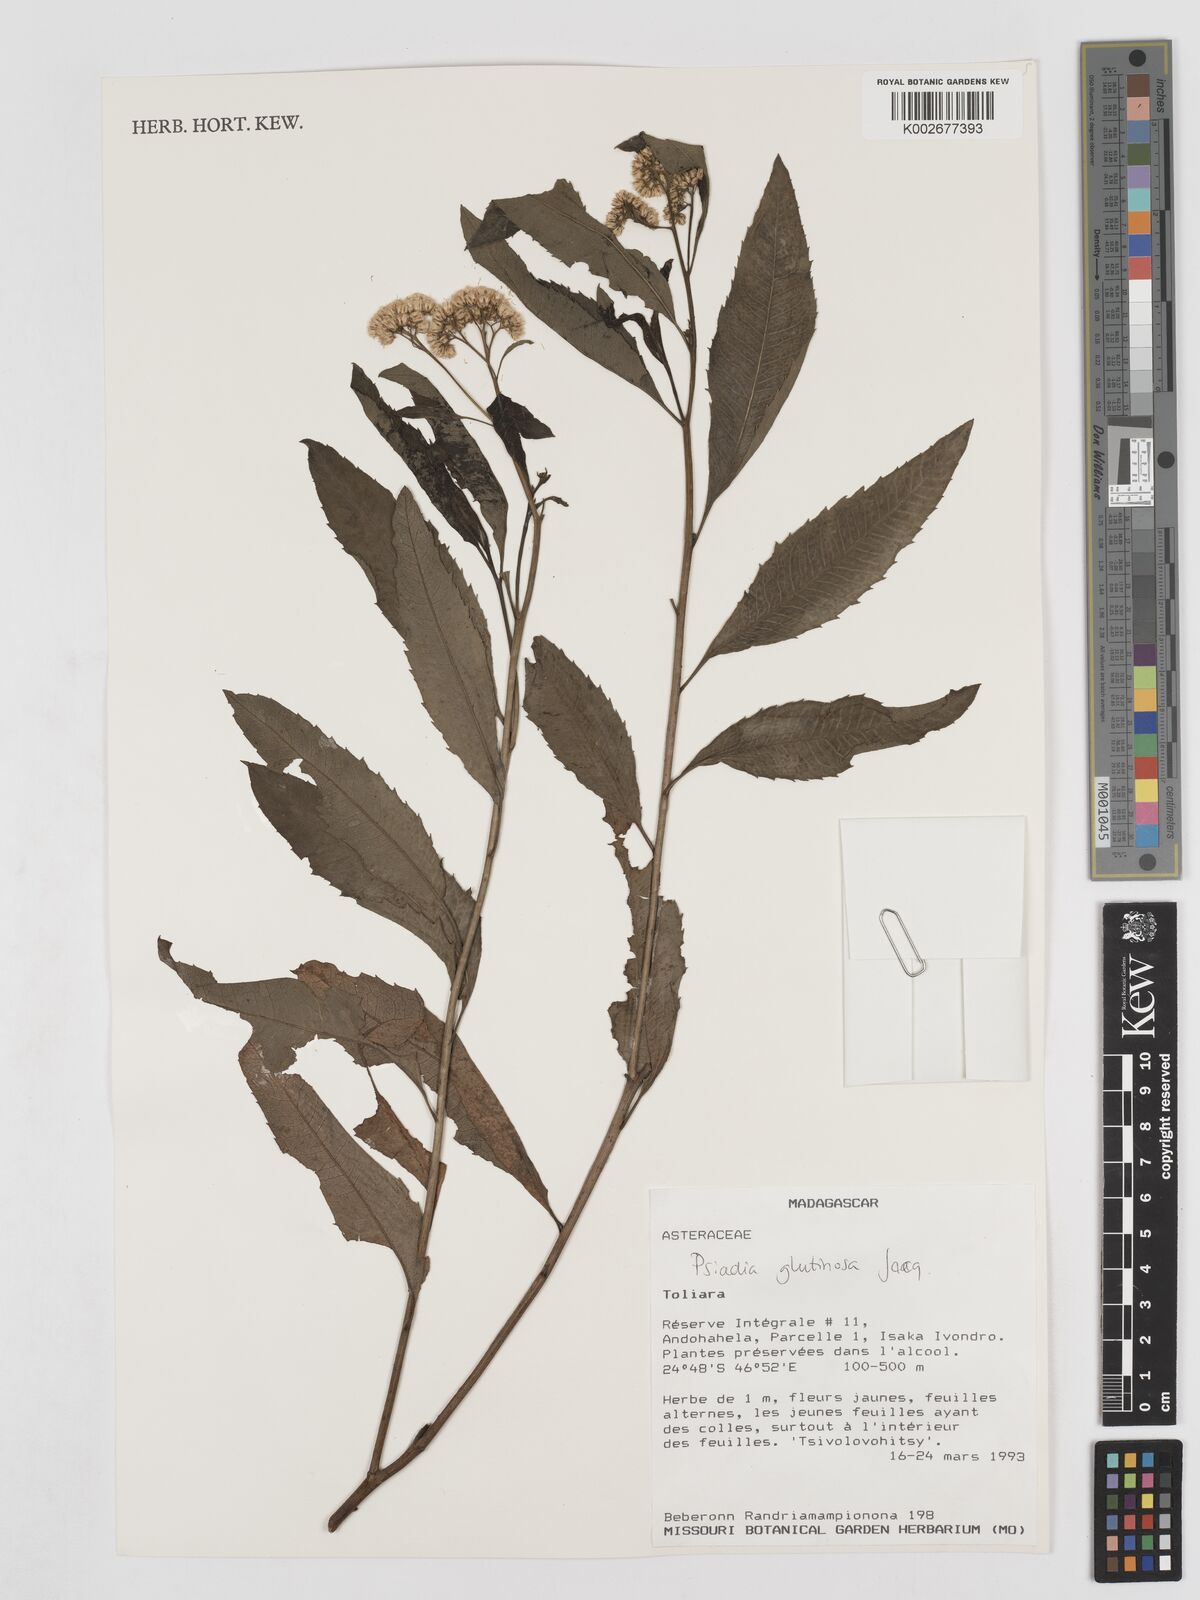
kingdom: Plantae
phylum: Tracheophyta
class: Magnoliopsida
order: Asterales
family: Asteraceae
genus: Psiadia
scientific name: Psiadia glutinosa
